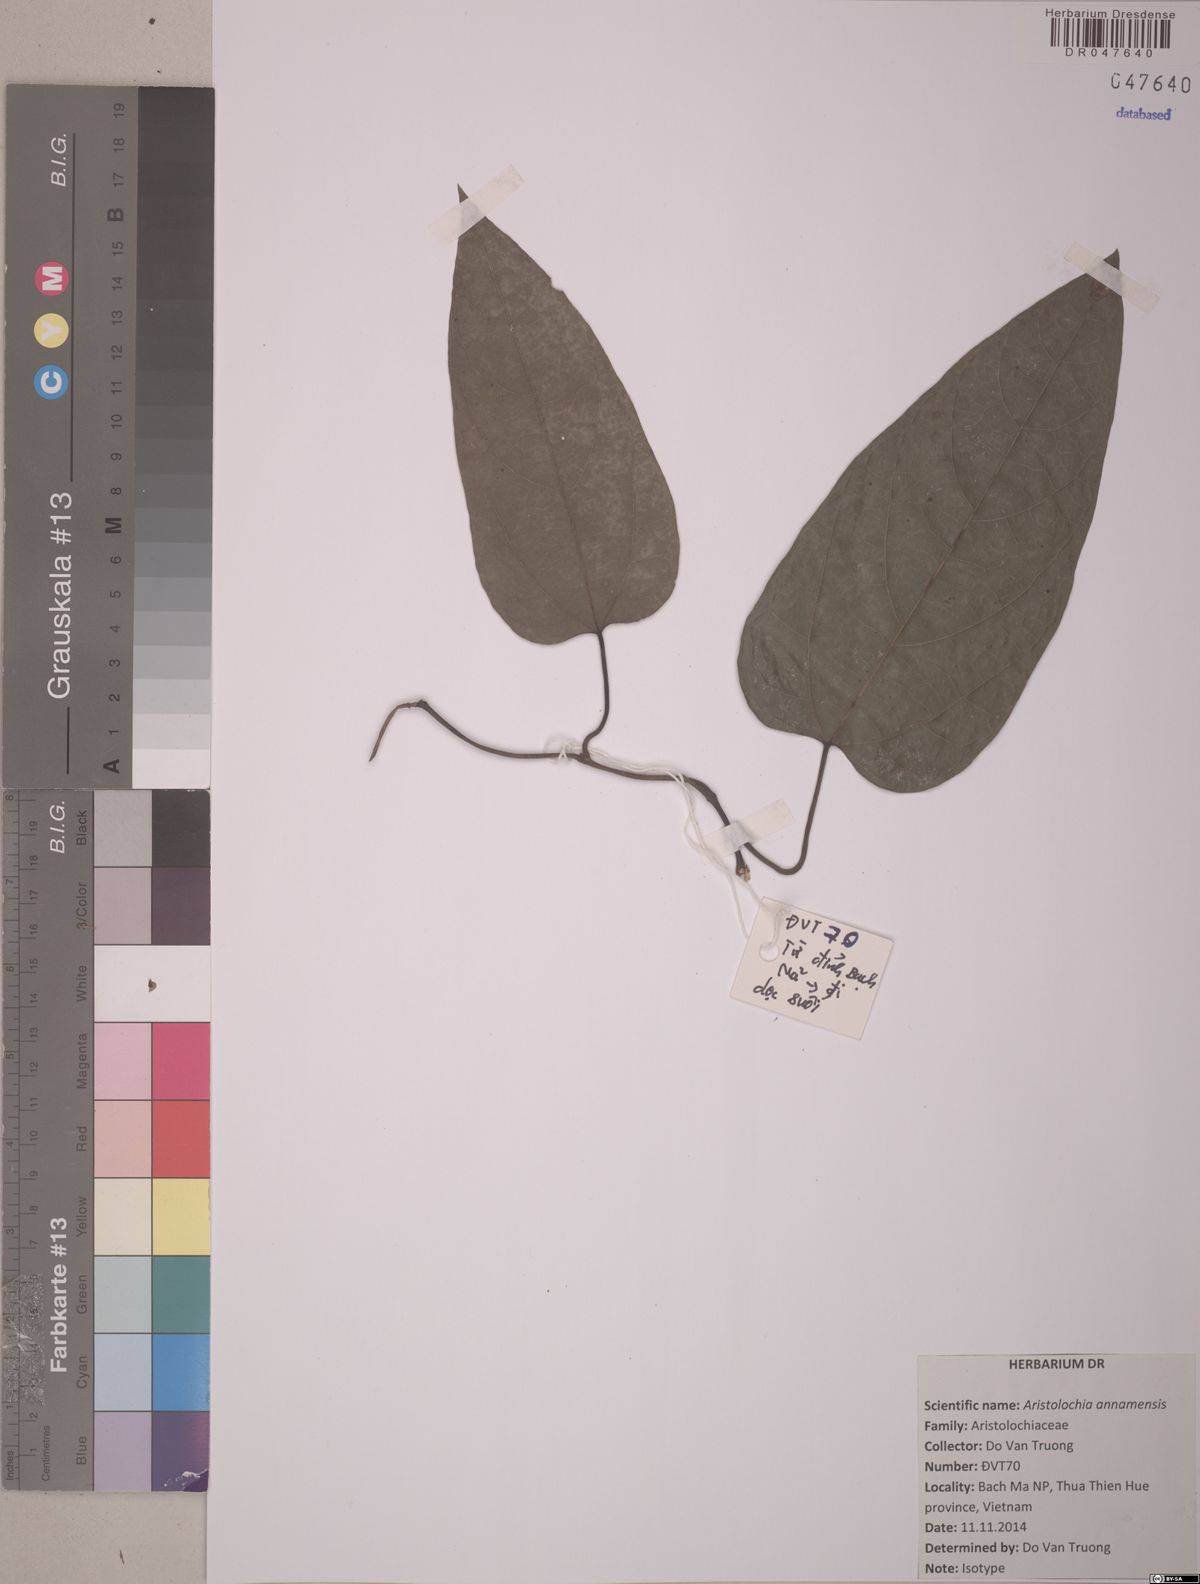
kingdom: Plantae
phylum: Tracheophyta
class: Magnoliopsida
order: Piperales
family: Aristolochiaceae
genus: Isotrema
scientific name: Isotrema annamense
